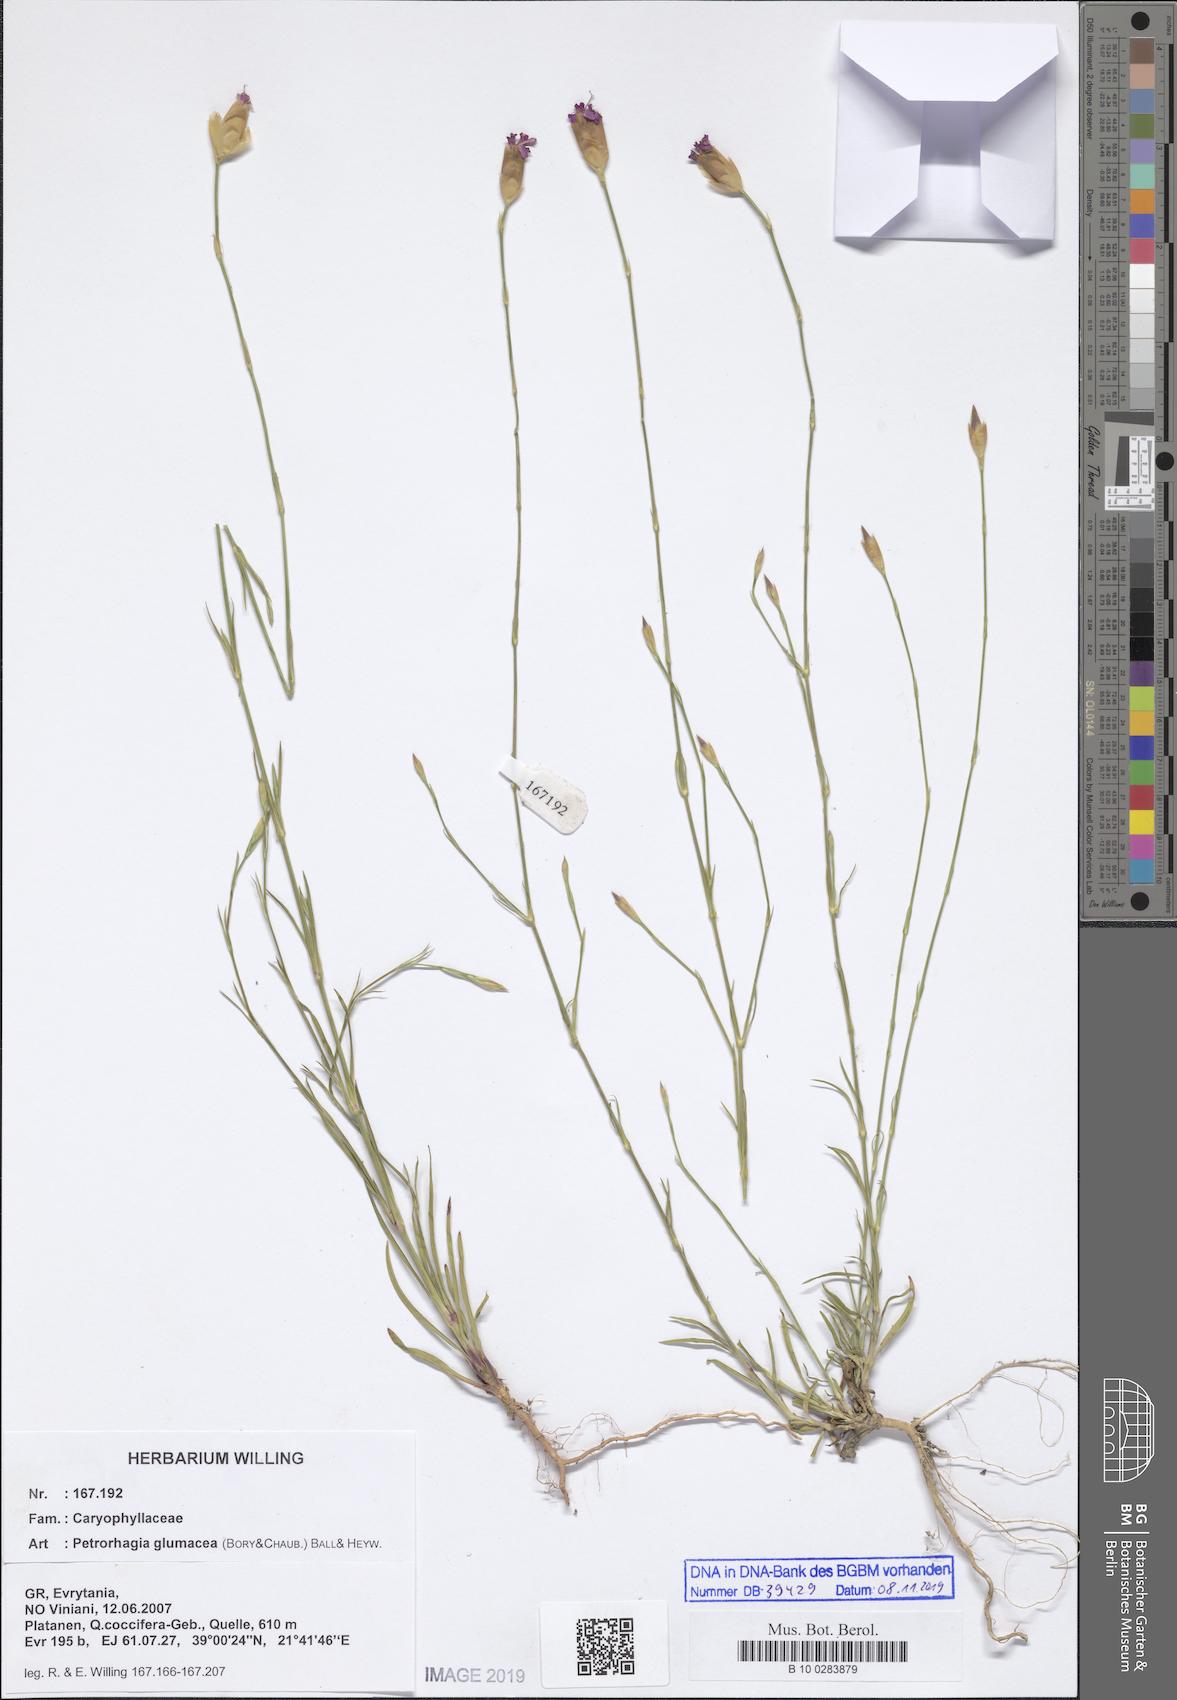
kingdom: Plantae
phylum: Tracheophyta
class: Magnoliopsida
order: Caryophyllales
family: Caryophyllaceae
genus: Petrorhagia
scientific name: Petrorhagia glumacea
